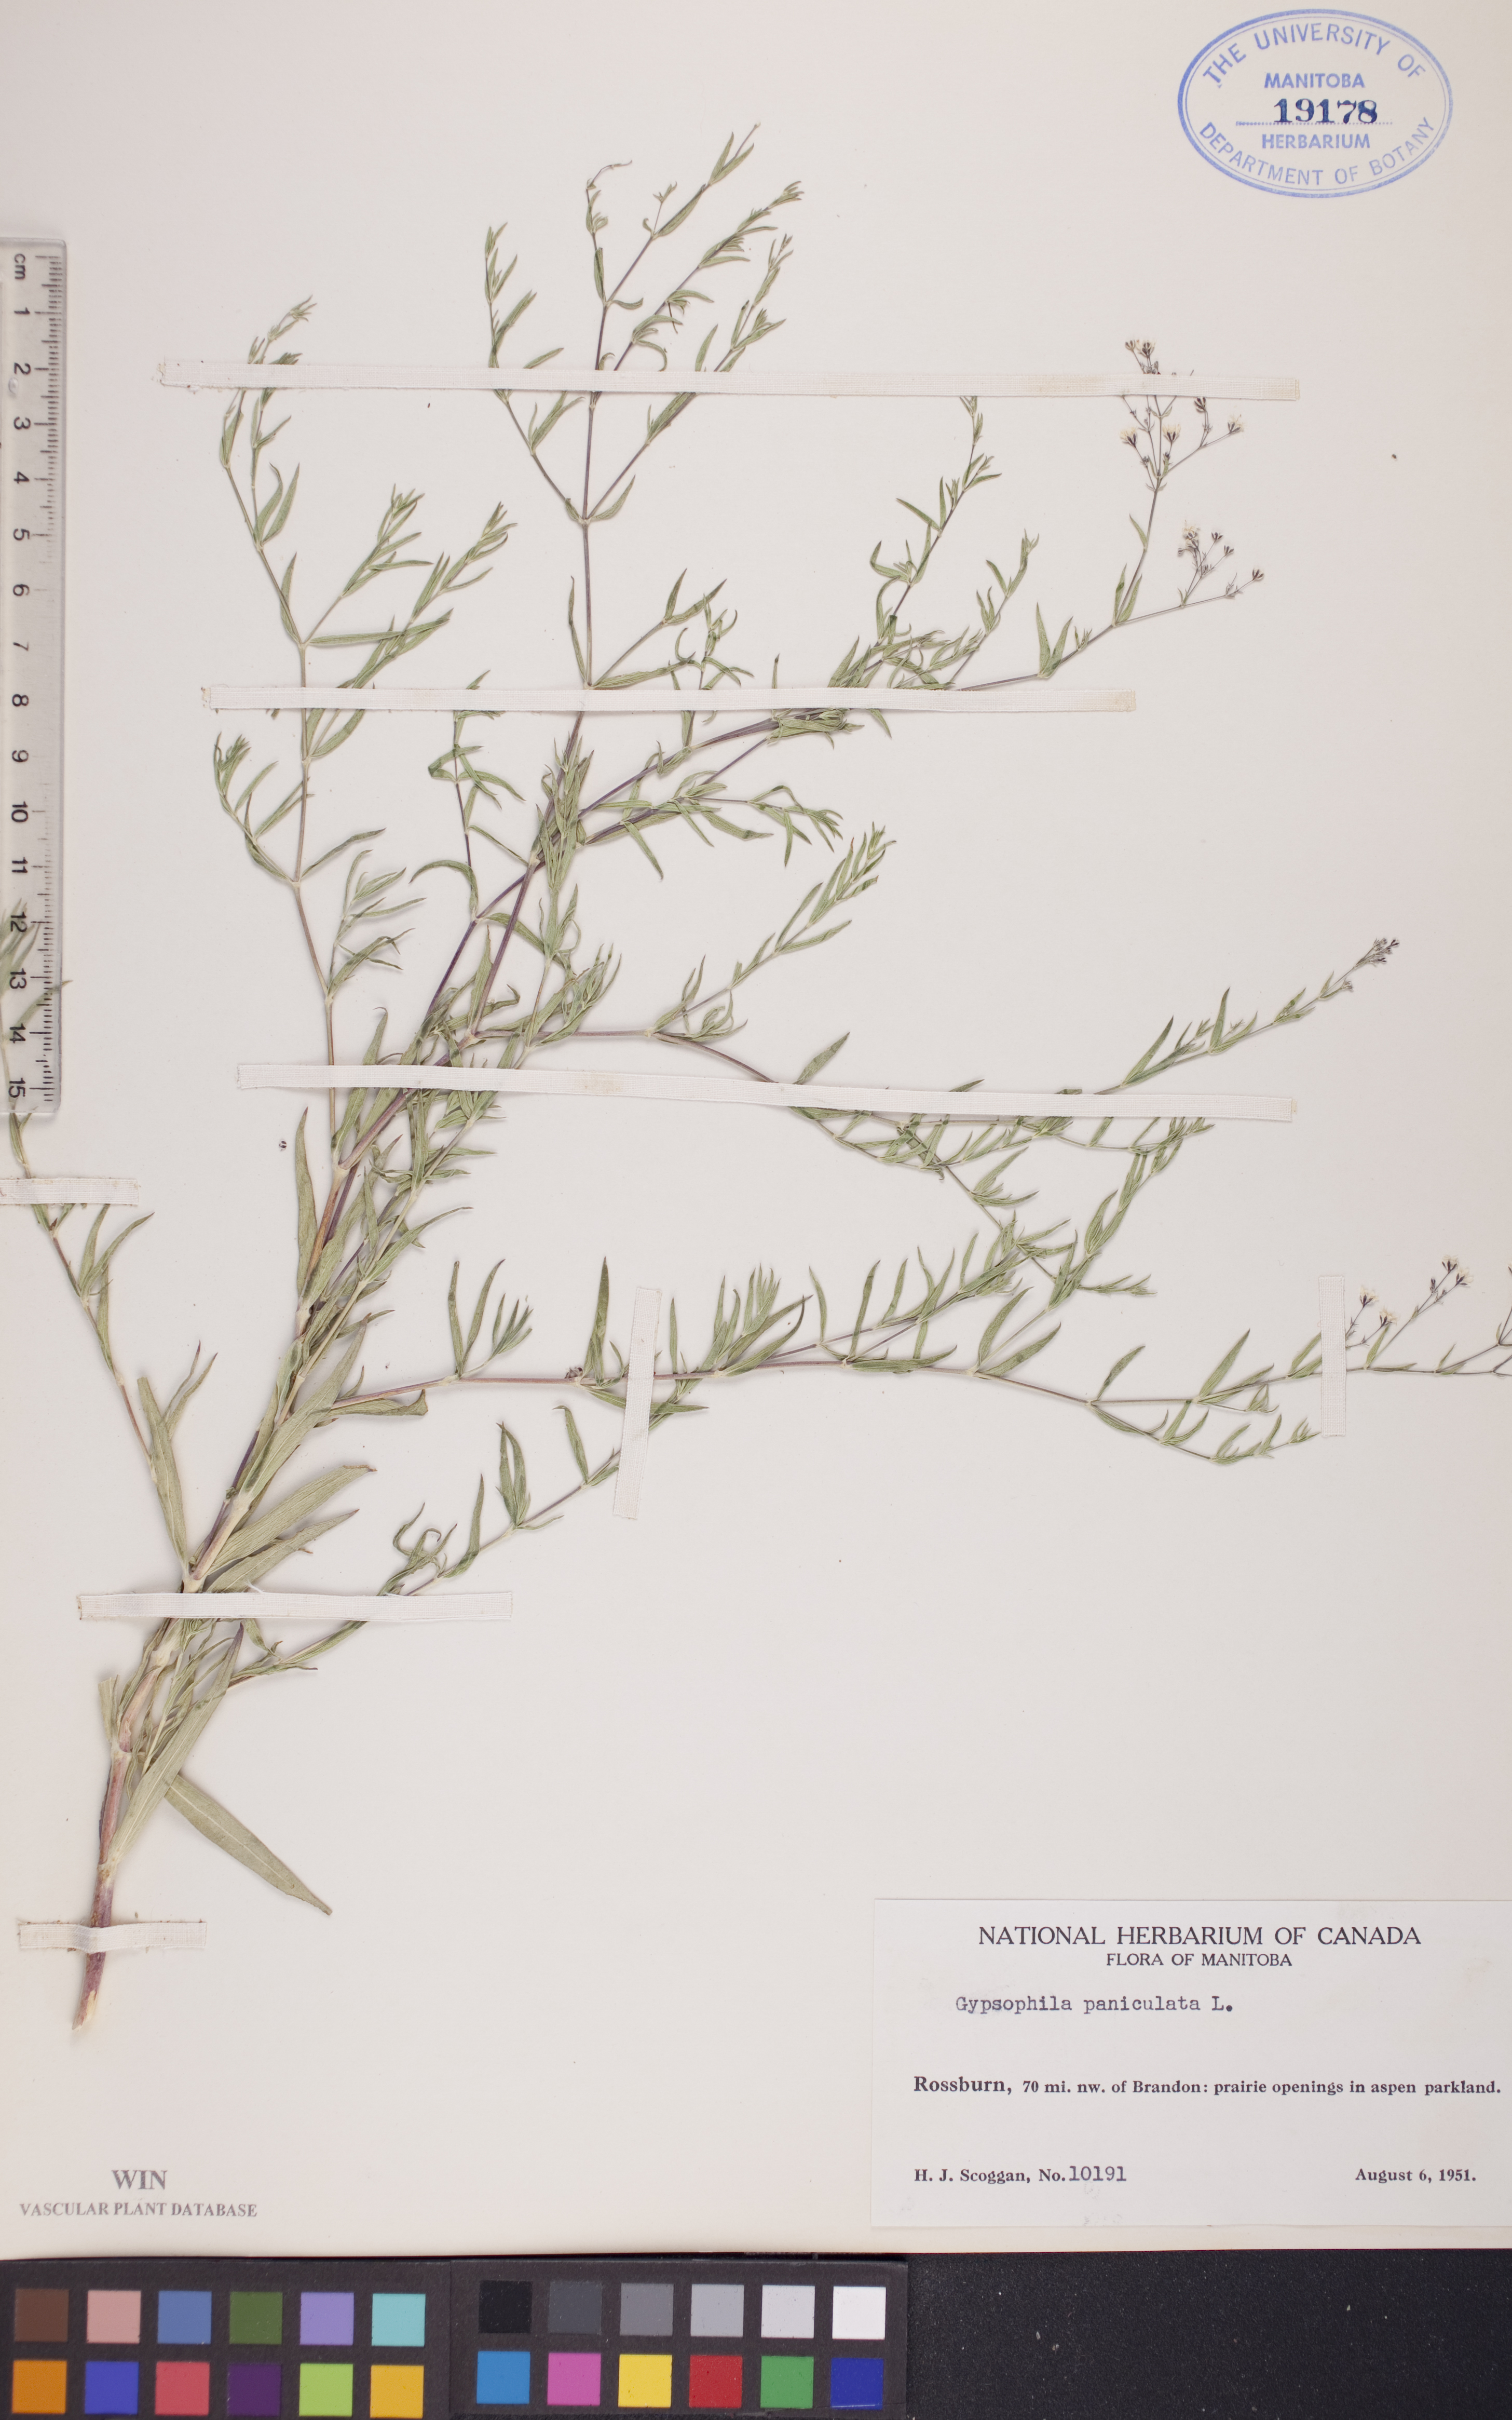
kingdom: Plantae
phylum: Tracheophyta
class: Magnoliopsida
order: Caryophyllales
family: Caryophyllaceae
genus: Gypsophila
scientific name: Gypsophila paniculata
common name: Baby's-breath
